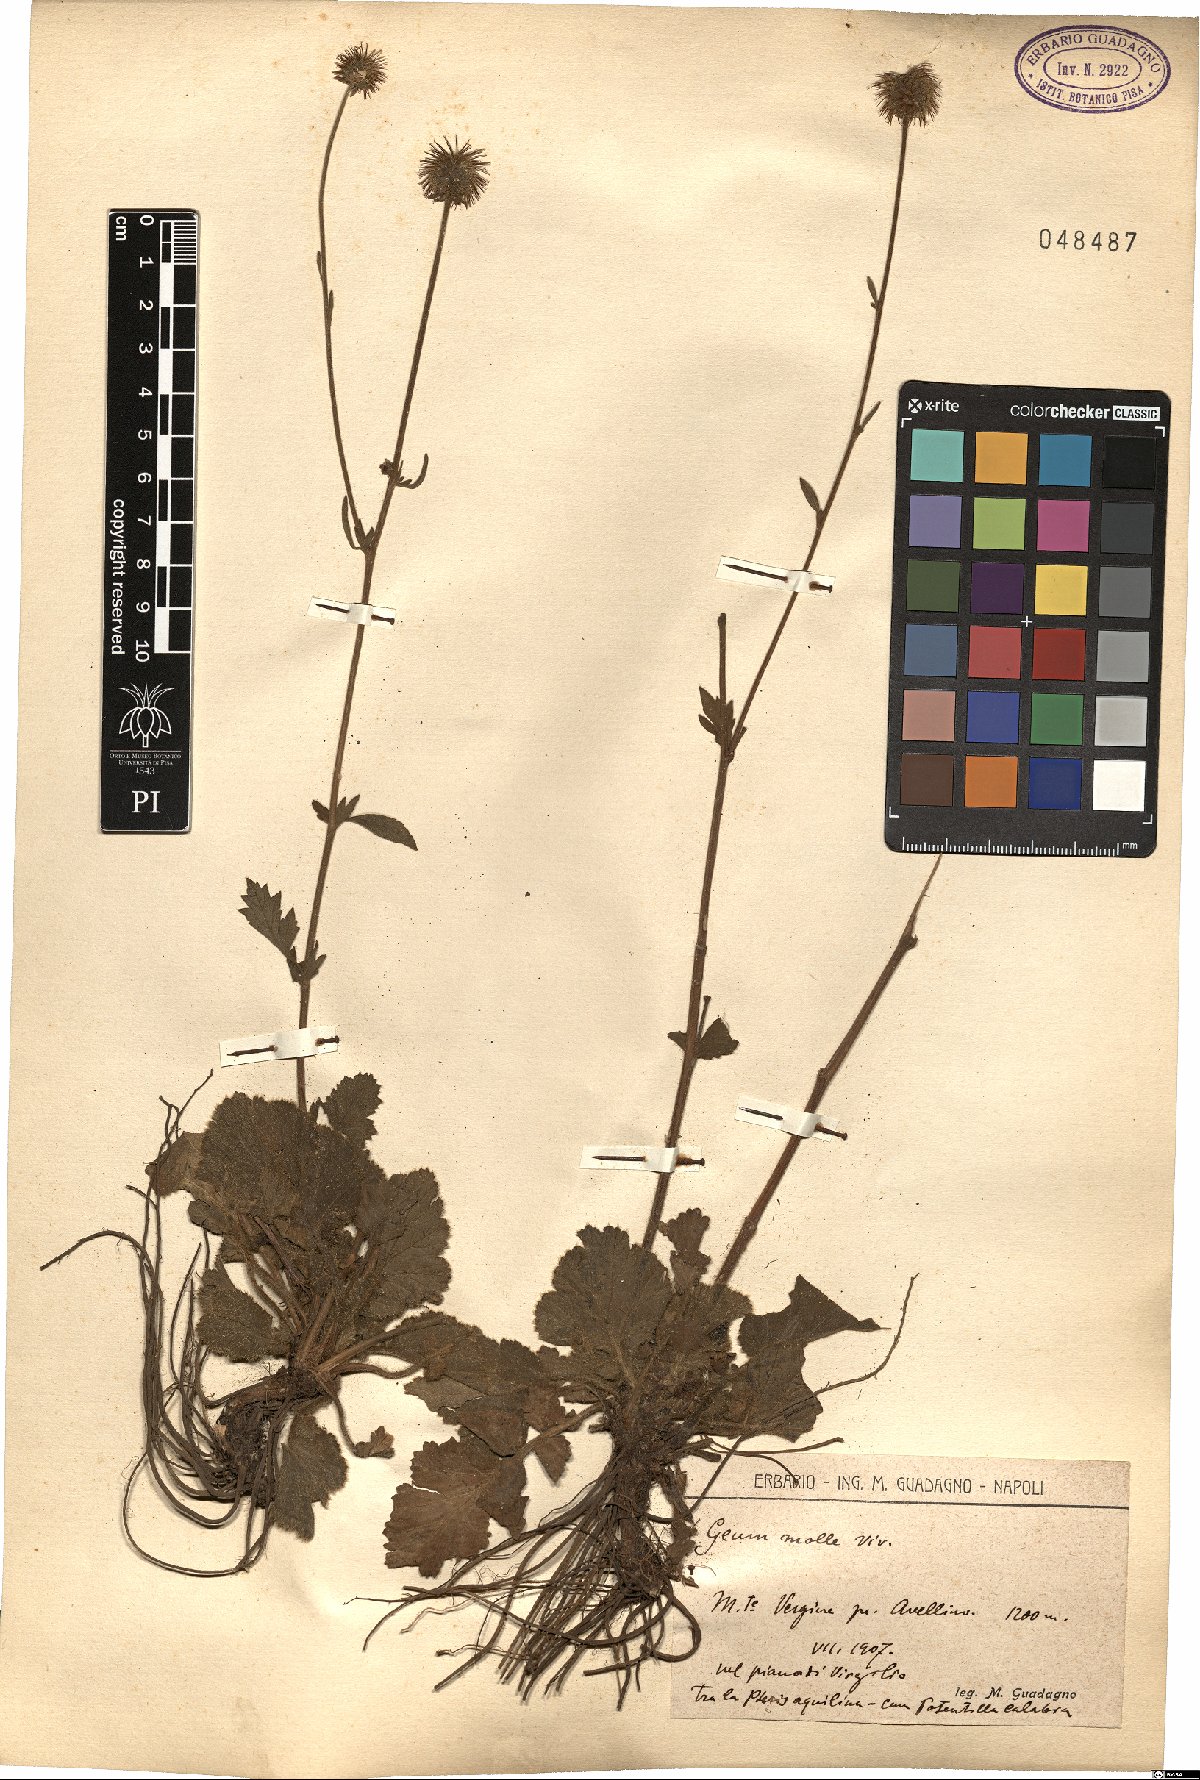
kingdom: Plantae
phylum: Tracheophyta
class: Magnoliopsida
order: Rosales
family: Rosaceae
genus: Geum
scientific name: Geum molle
